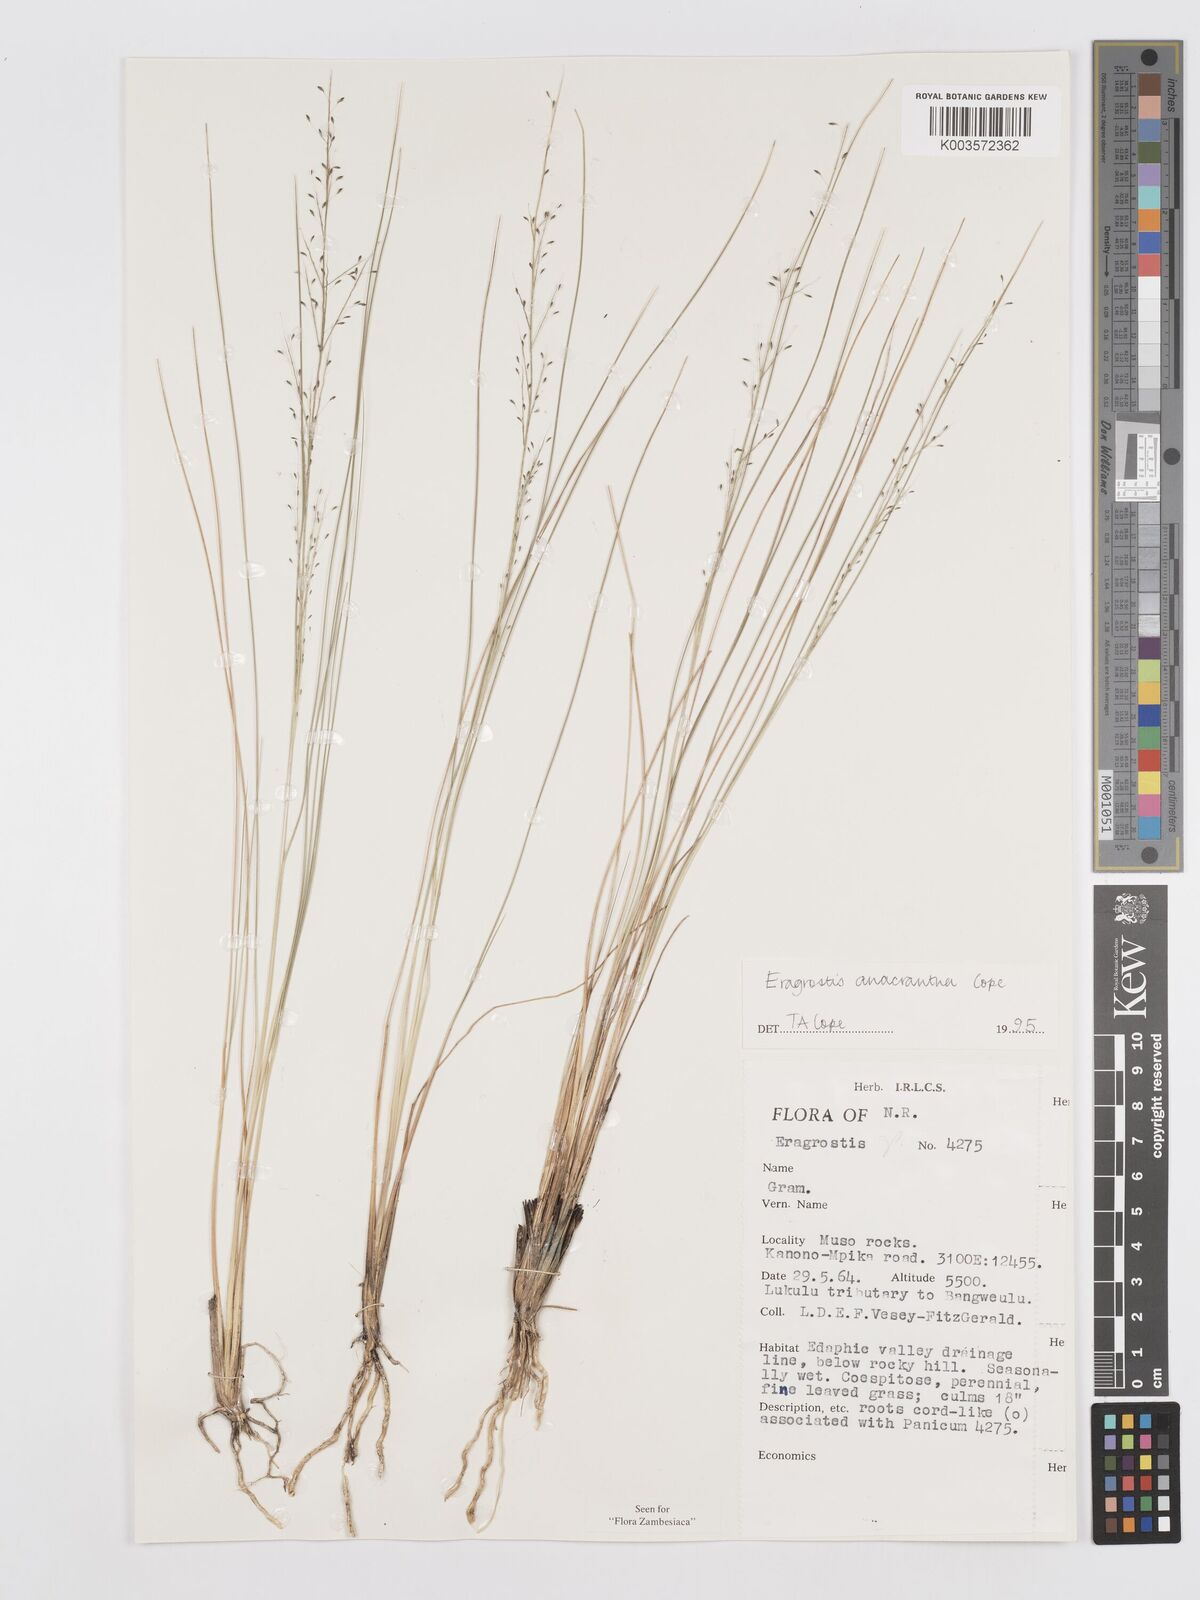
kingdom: Plantae
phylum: Tracheophyta
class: Liliopsida
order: Poales
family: Poaceae
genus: Eragrostis
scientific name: Eragrostis anacrantha
